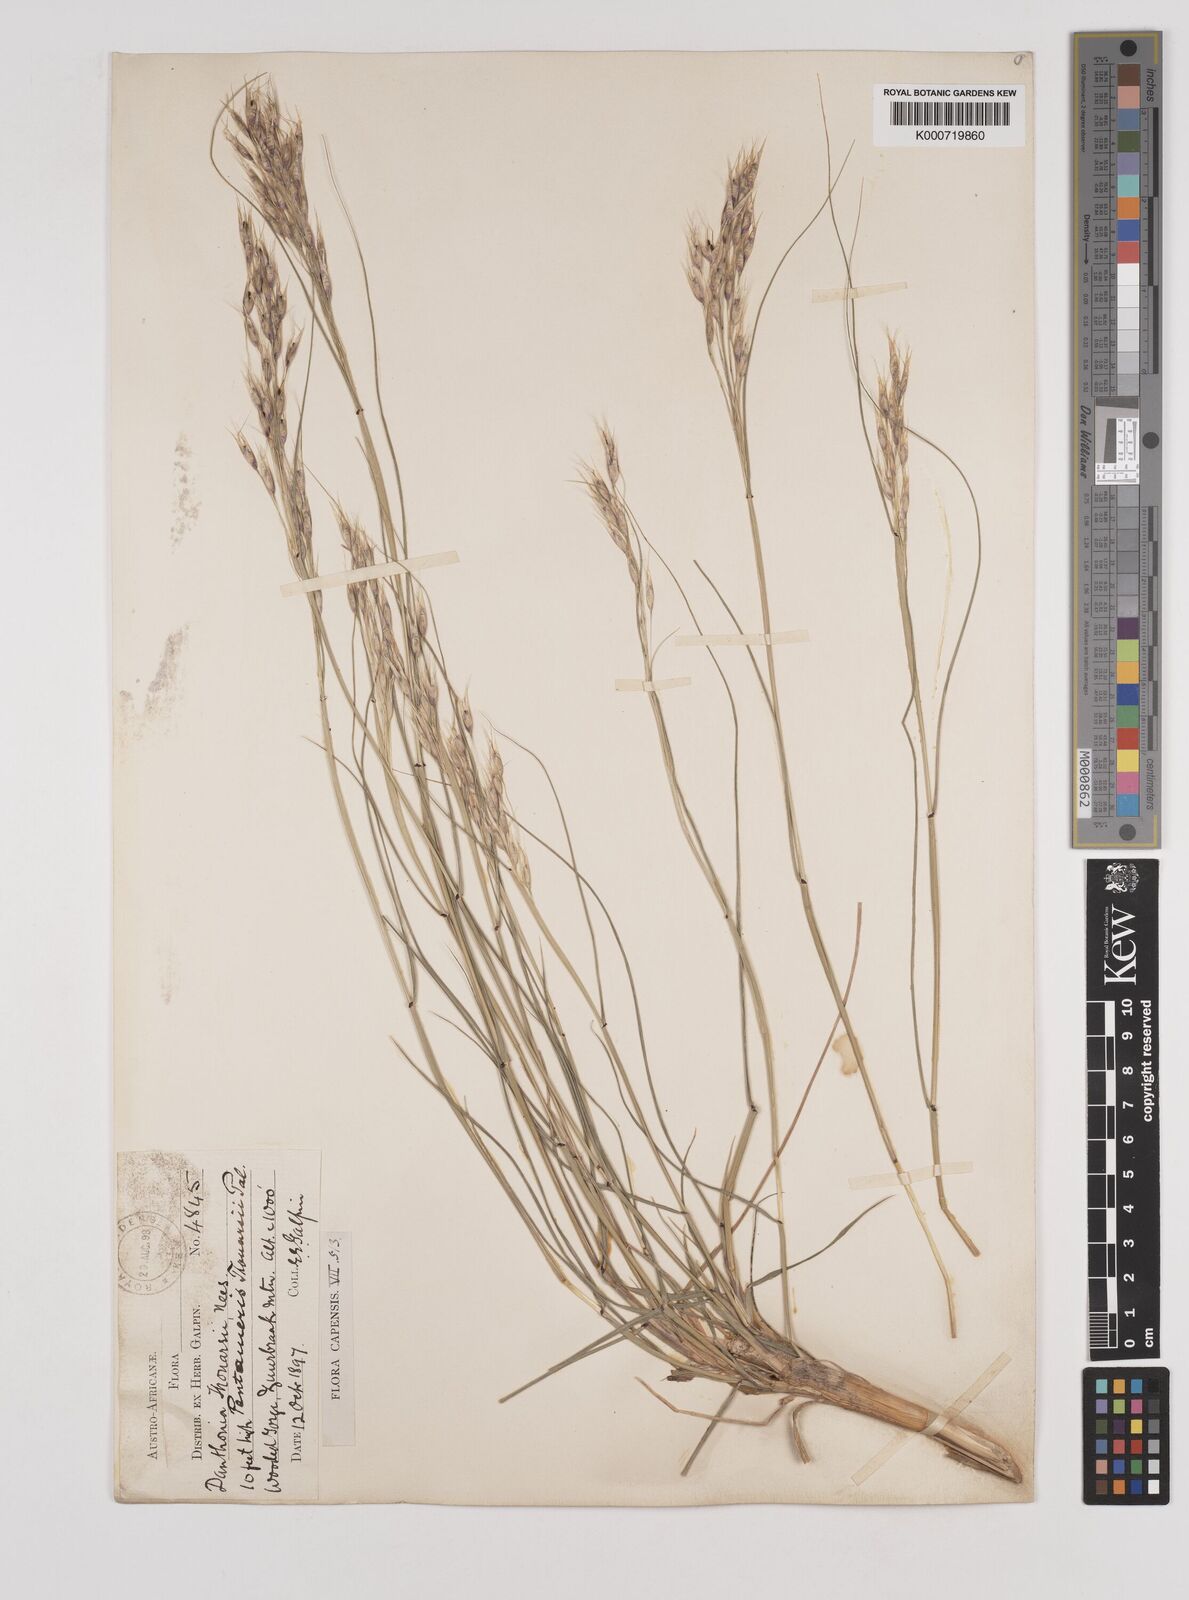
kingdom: Plantae
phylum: Tracheophyta
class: Liliopsida
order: Poales
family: Poaceae
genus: Pentameris
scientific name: Pentameris thuarii
